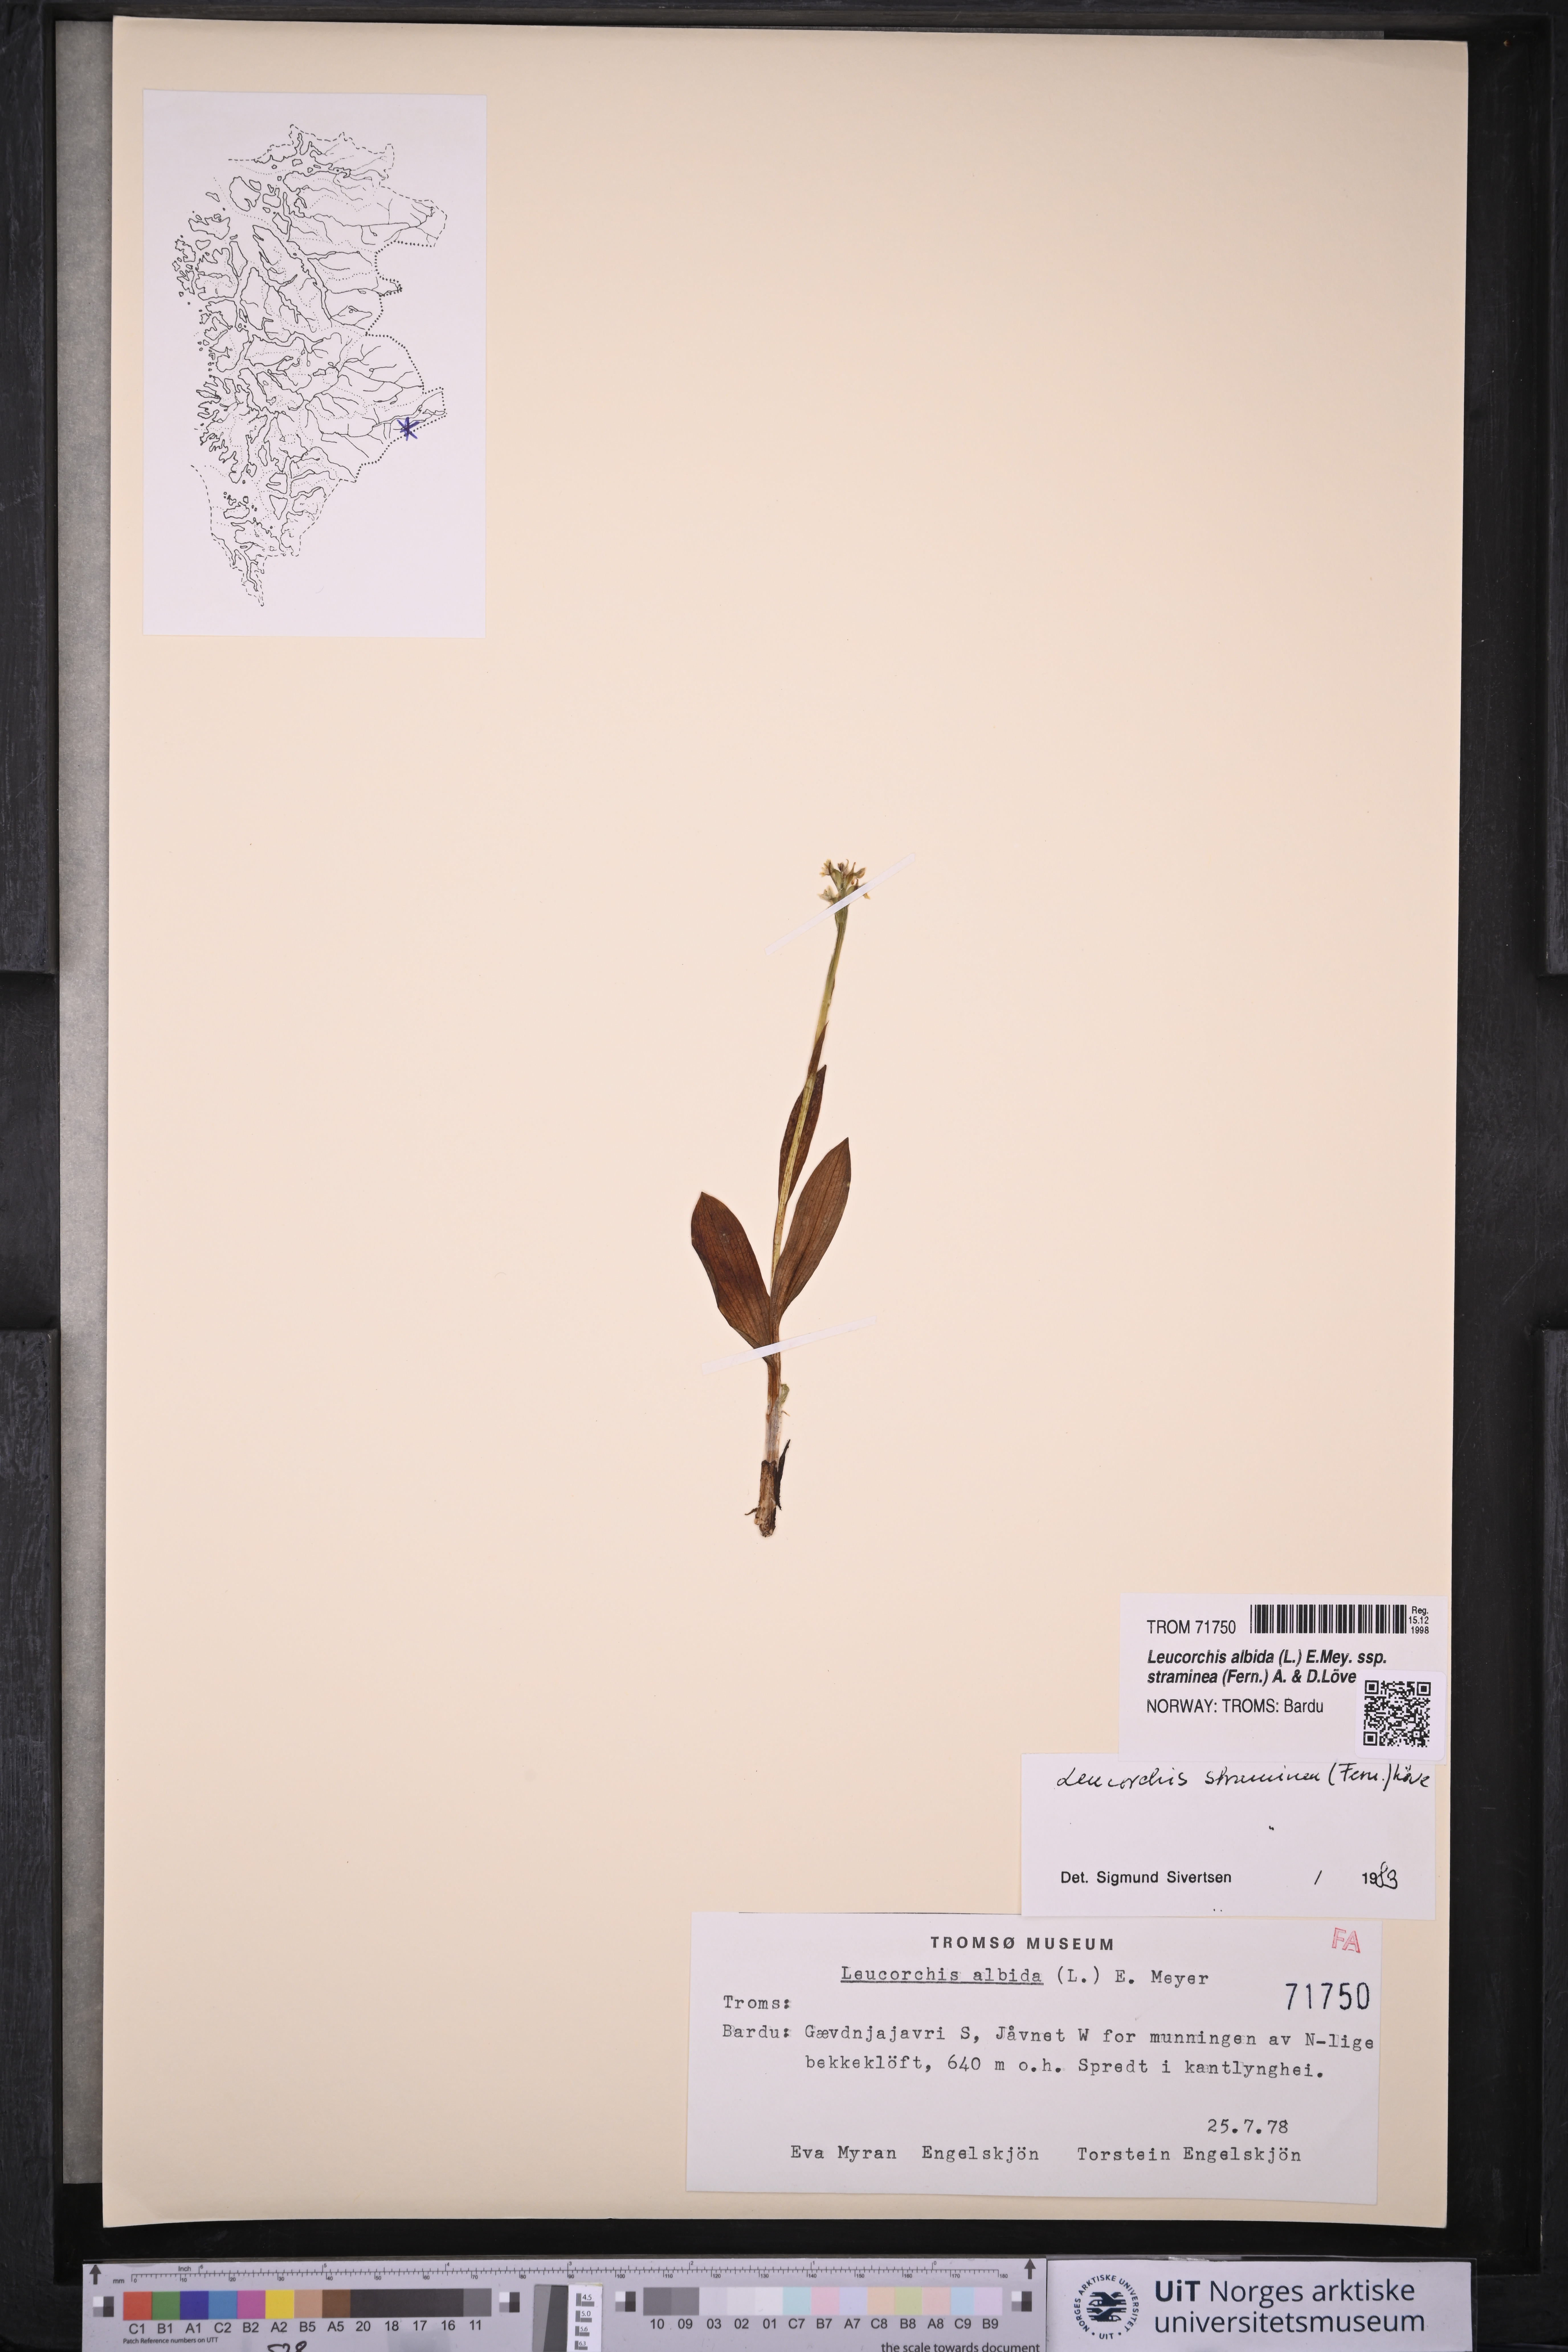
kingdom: Plantae
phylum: Tracheophyta
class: Liliopsida
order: Asparagales
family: Orchidaceae
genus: Pseudorchis
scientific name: Pseudorchis straminea
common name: Vanilla-scented bog orchid
